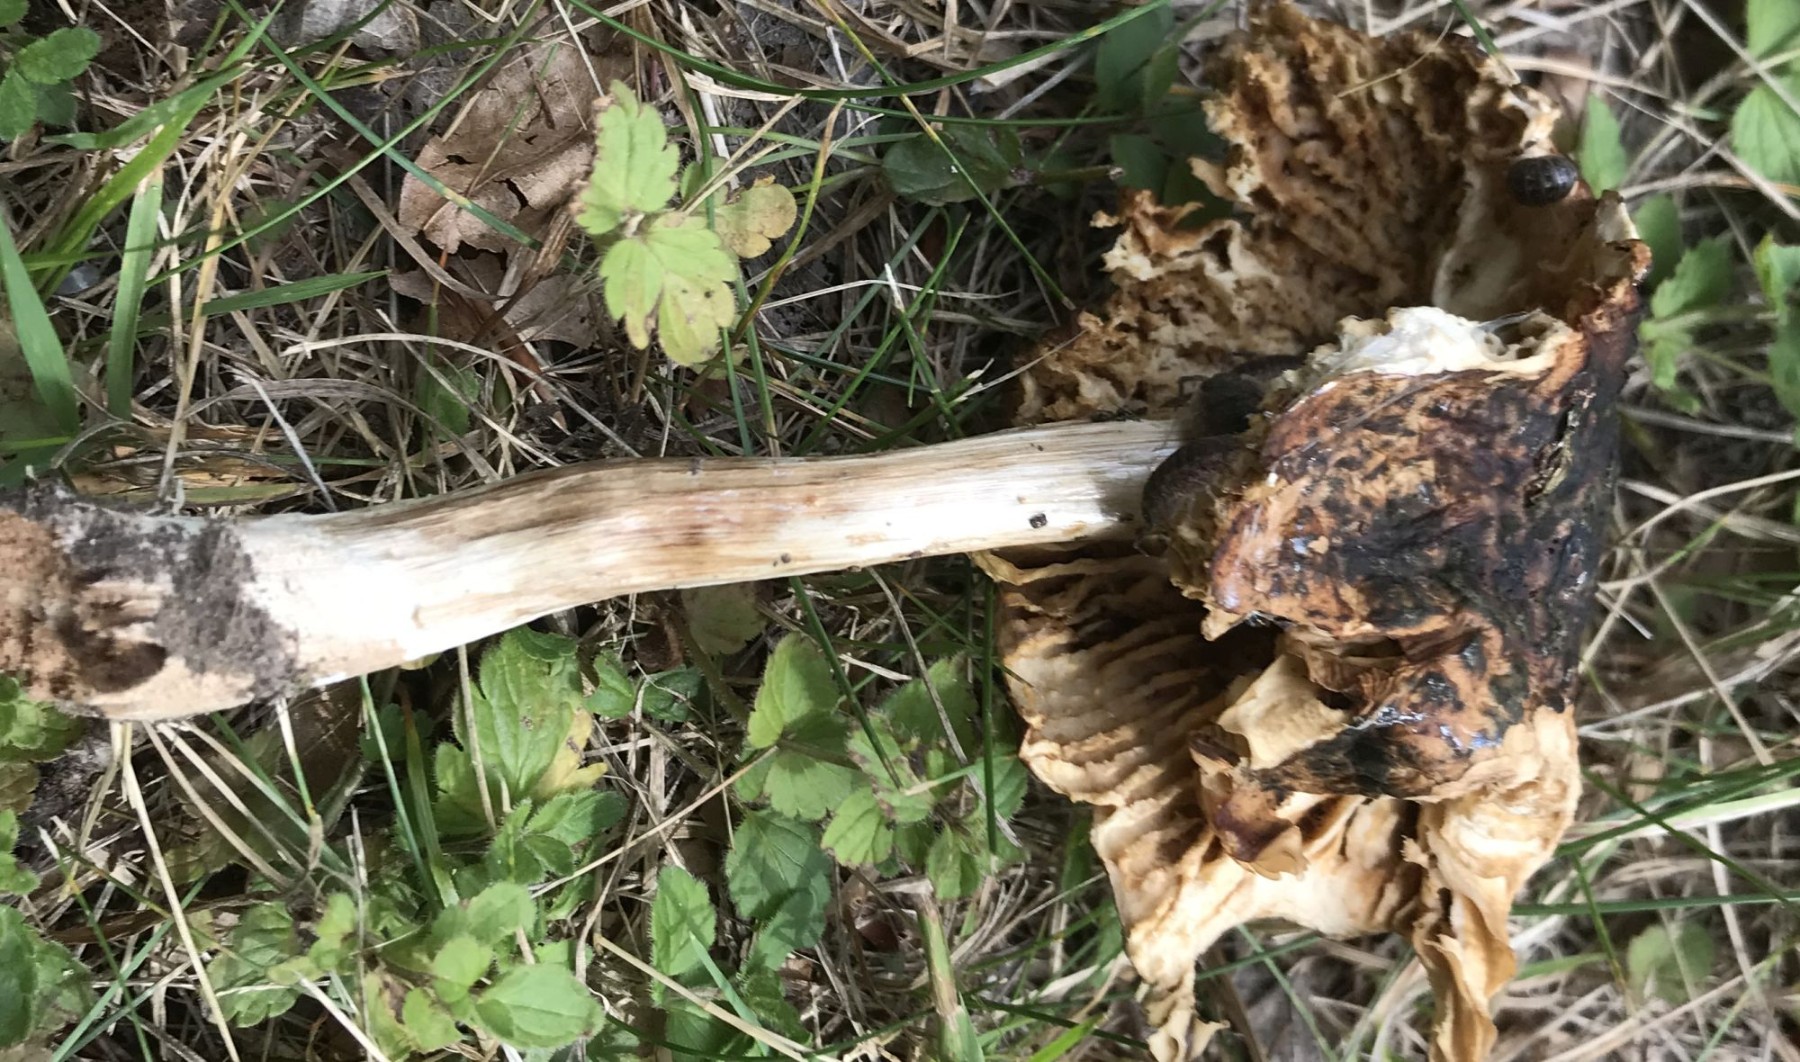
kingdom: Fungi
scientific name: Fungi
